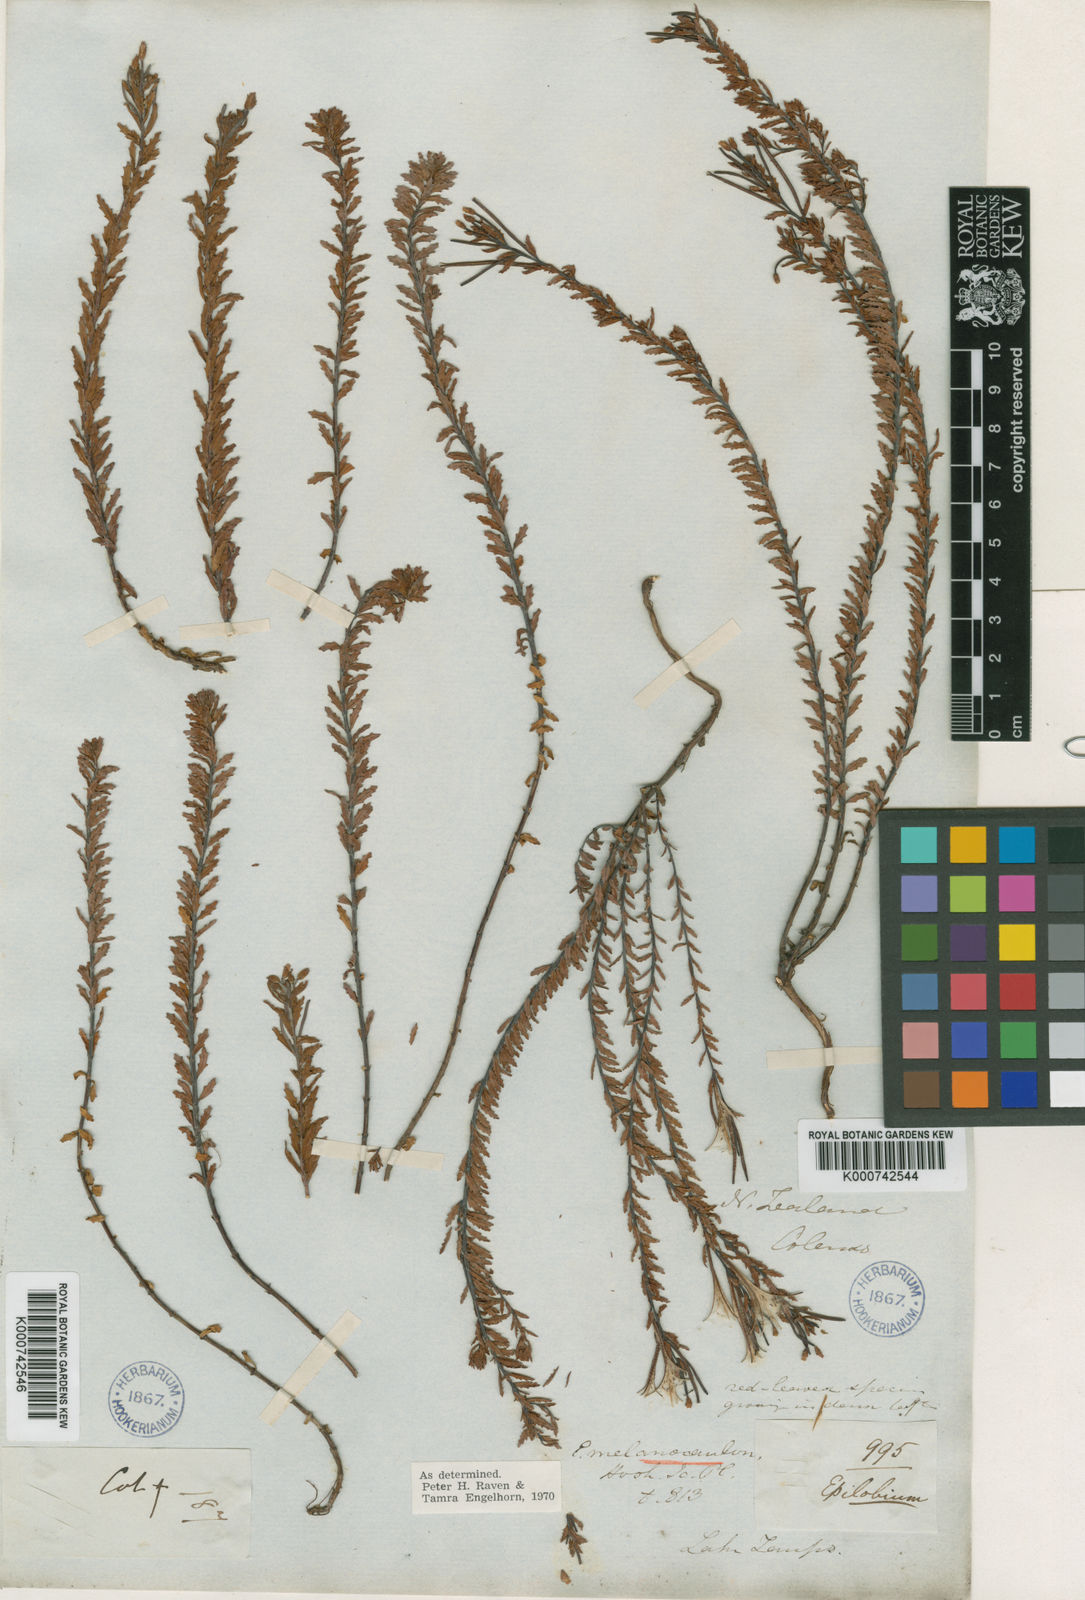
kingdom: Plantae
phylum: Tracheophyta
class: Magnoliopsida
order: Myrtales
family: Onagraceae
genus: Epilobium
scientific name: Epilobium melanocaulon
